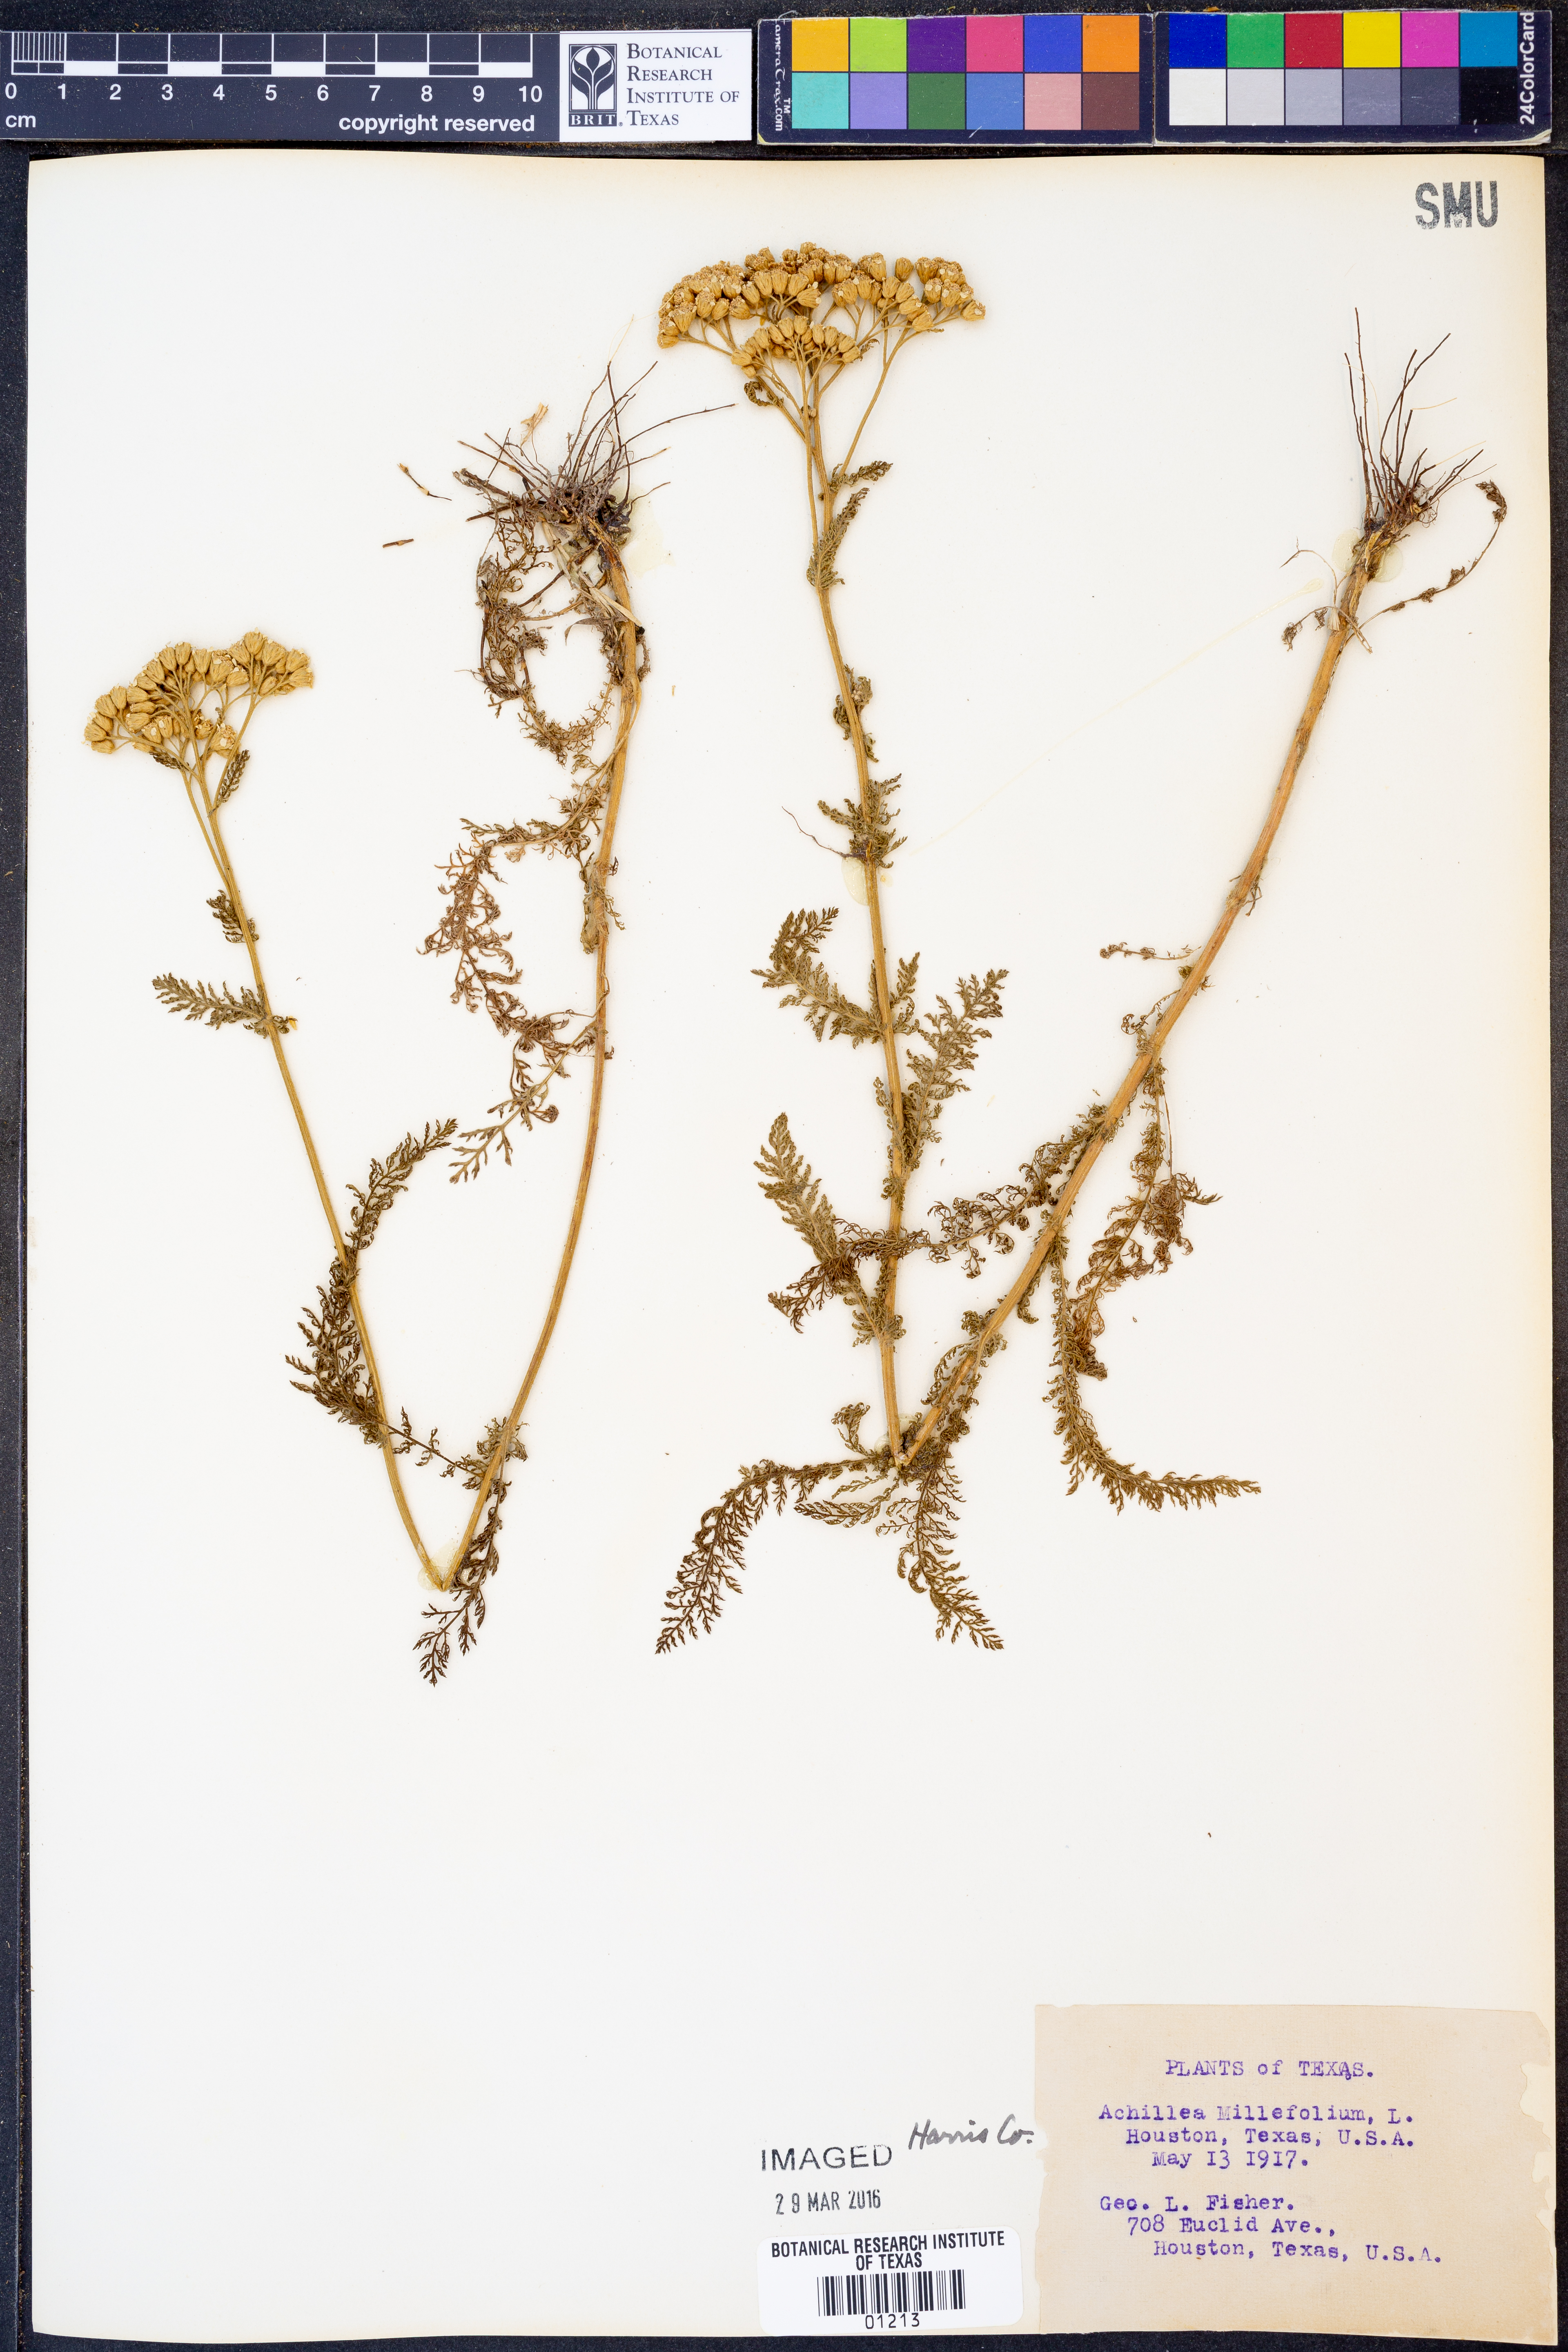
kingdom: Plantae
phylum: Tracheophyta
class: Magnoliopsida
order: Asterales
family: Asteraceae
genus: Achillea
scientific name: Achillea millefolium
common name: Yarrow
